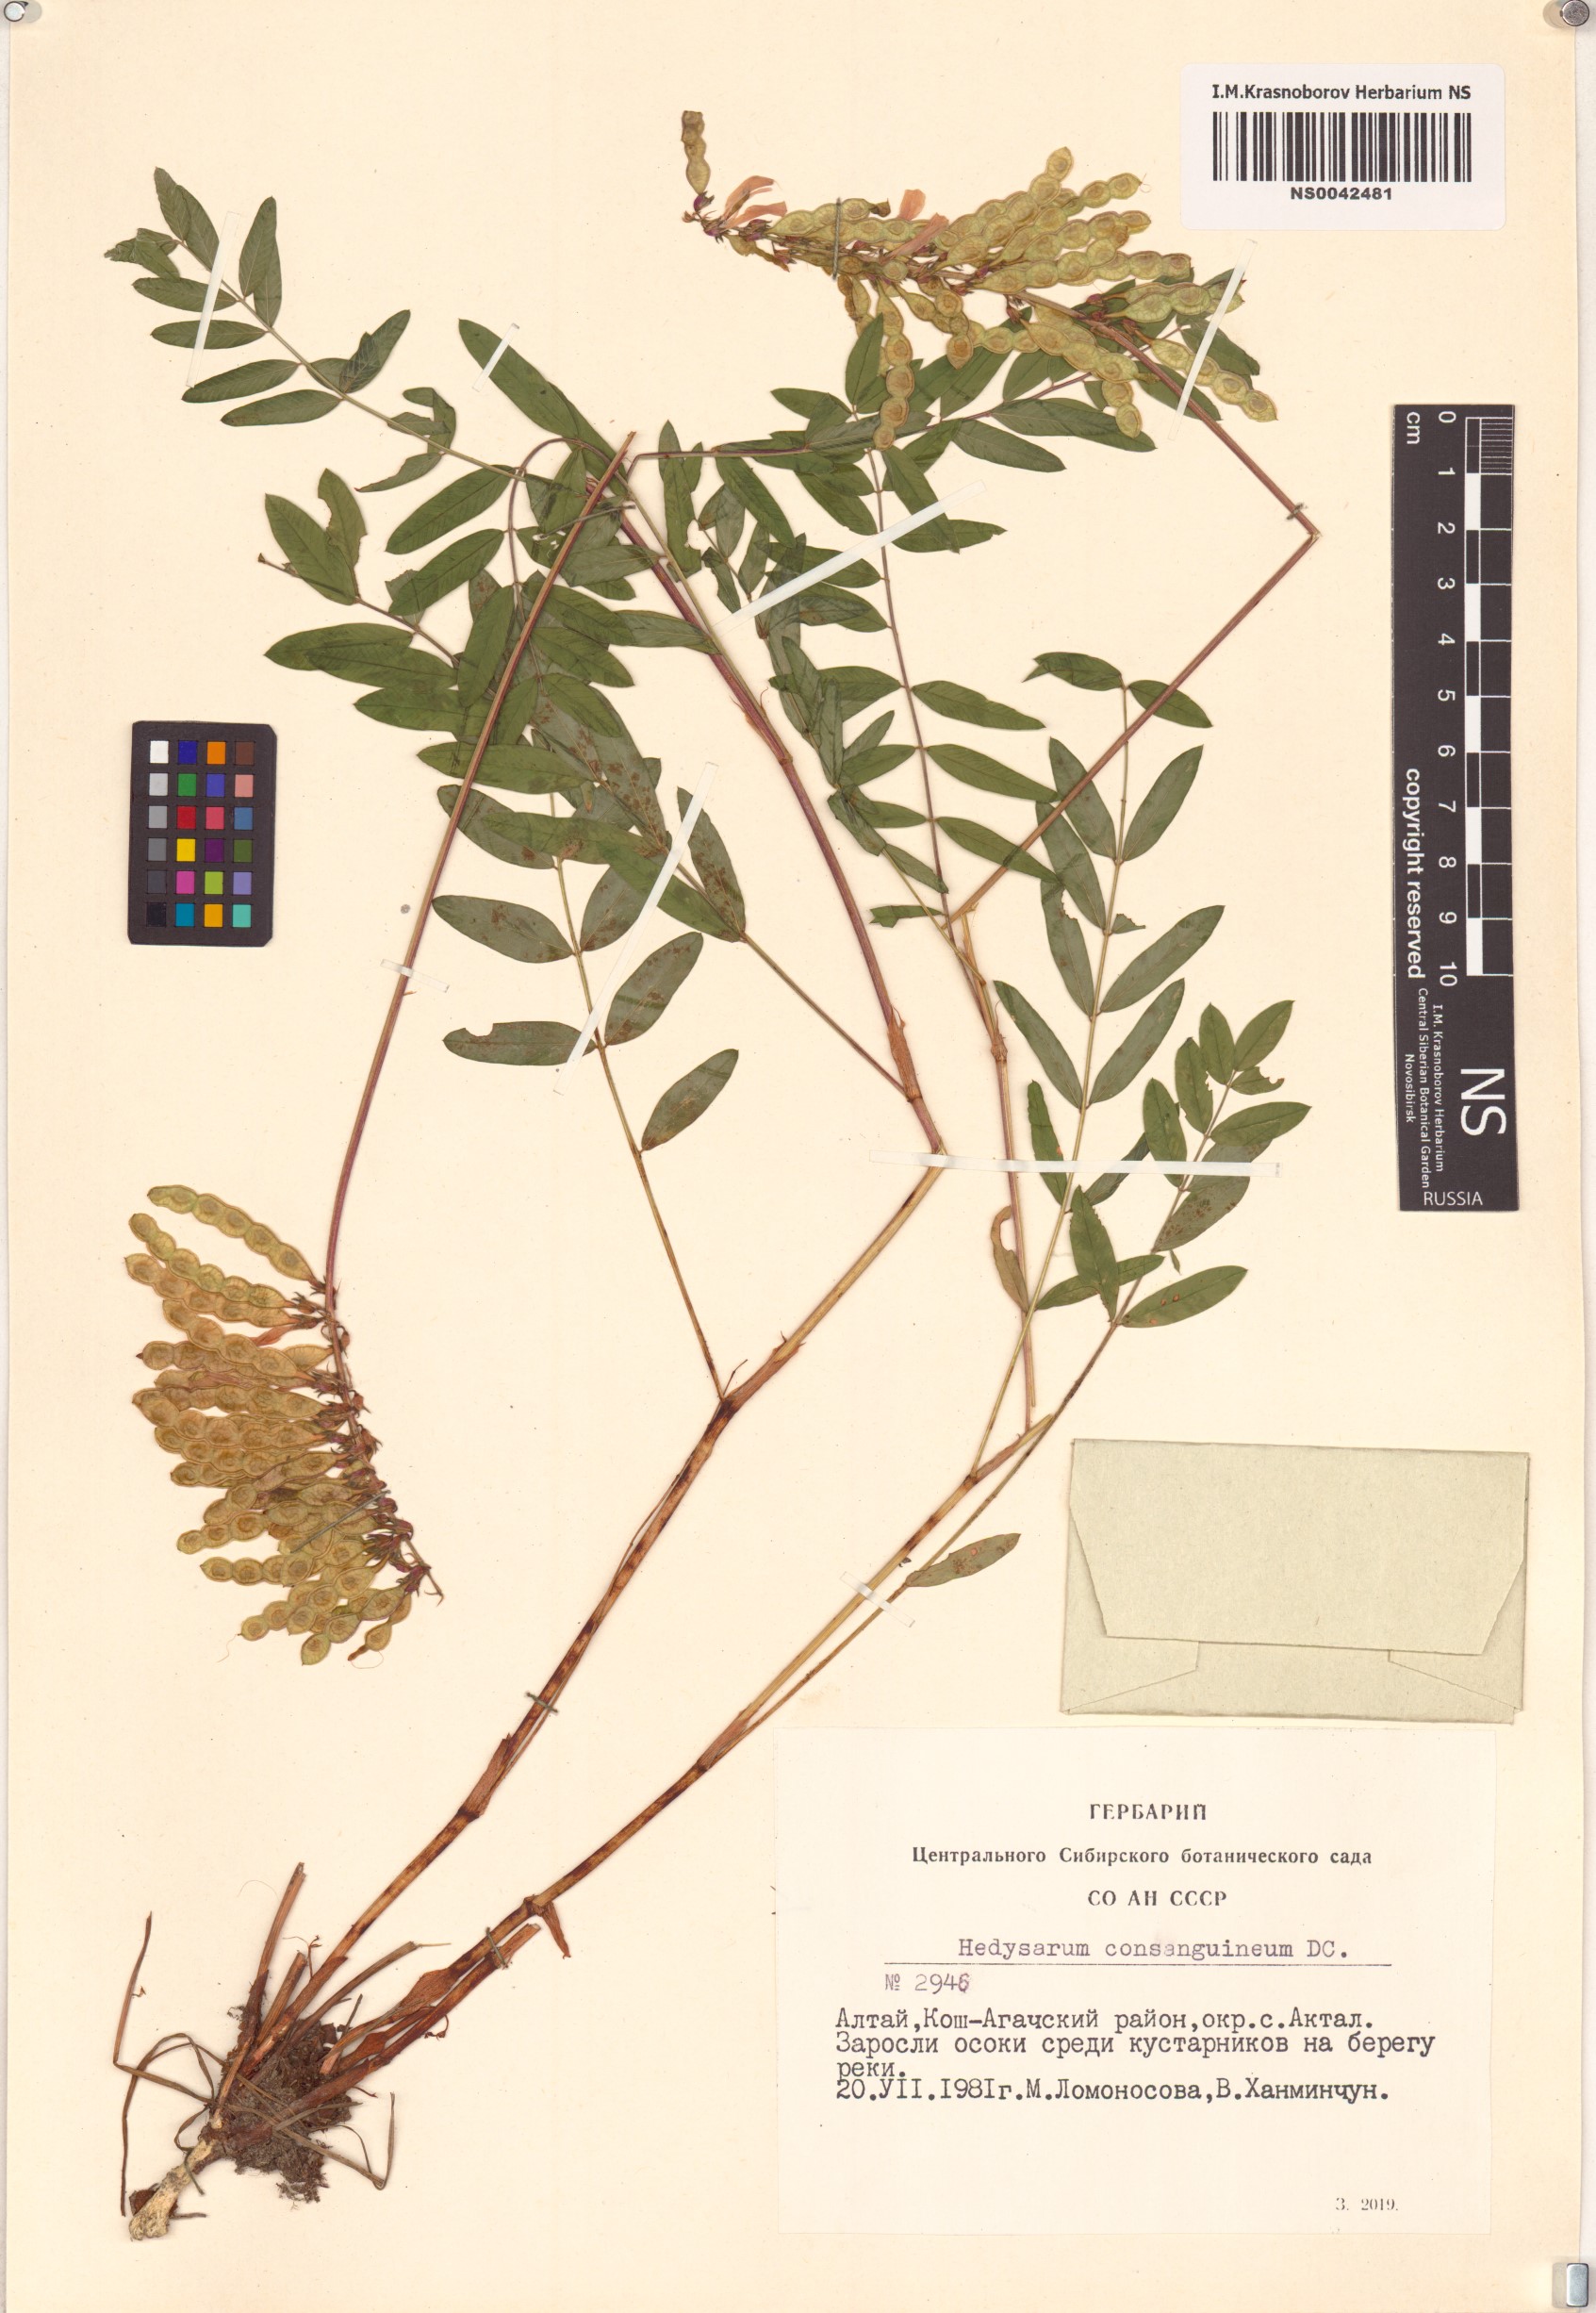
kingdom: Plantae
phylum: Tracheophyta
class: Magnoliopsida
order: Fabales
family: Fabaceae
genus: Hedysarum
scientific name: Hedysarum consanguineum
